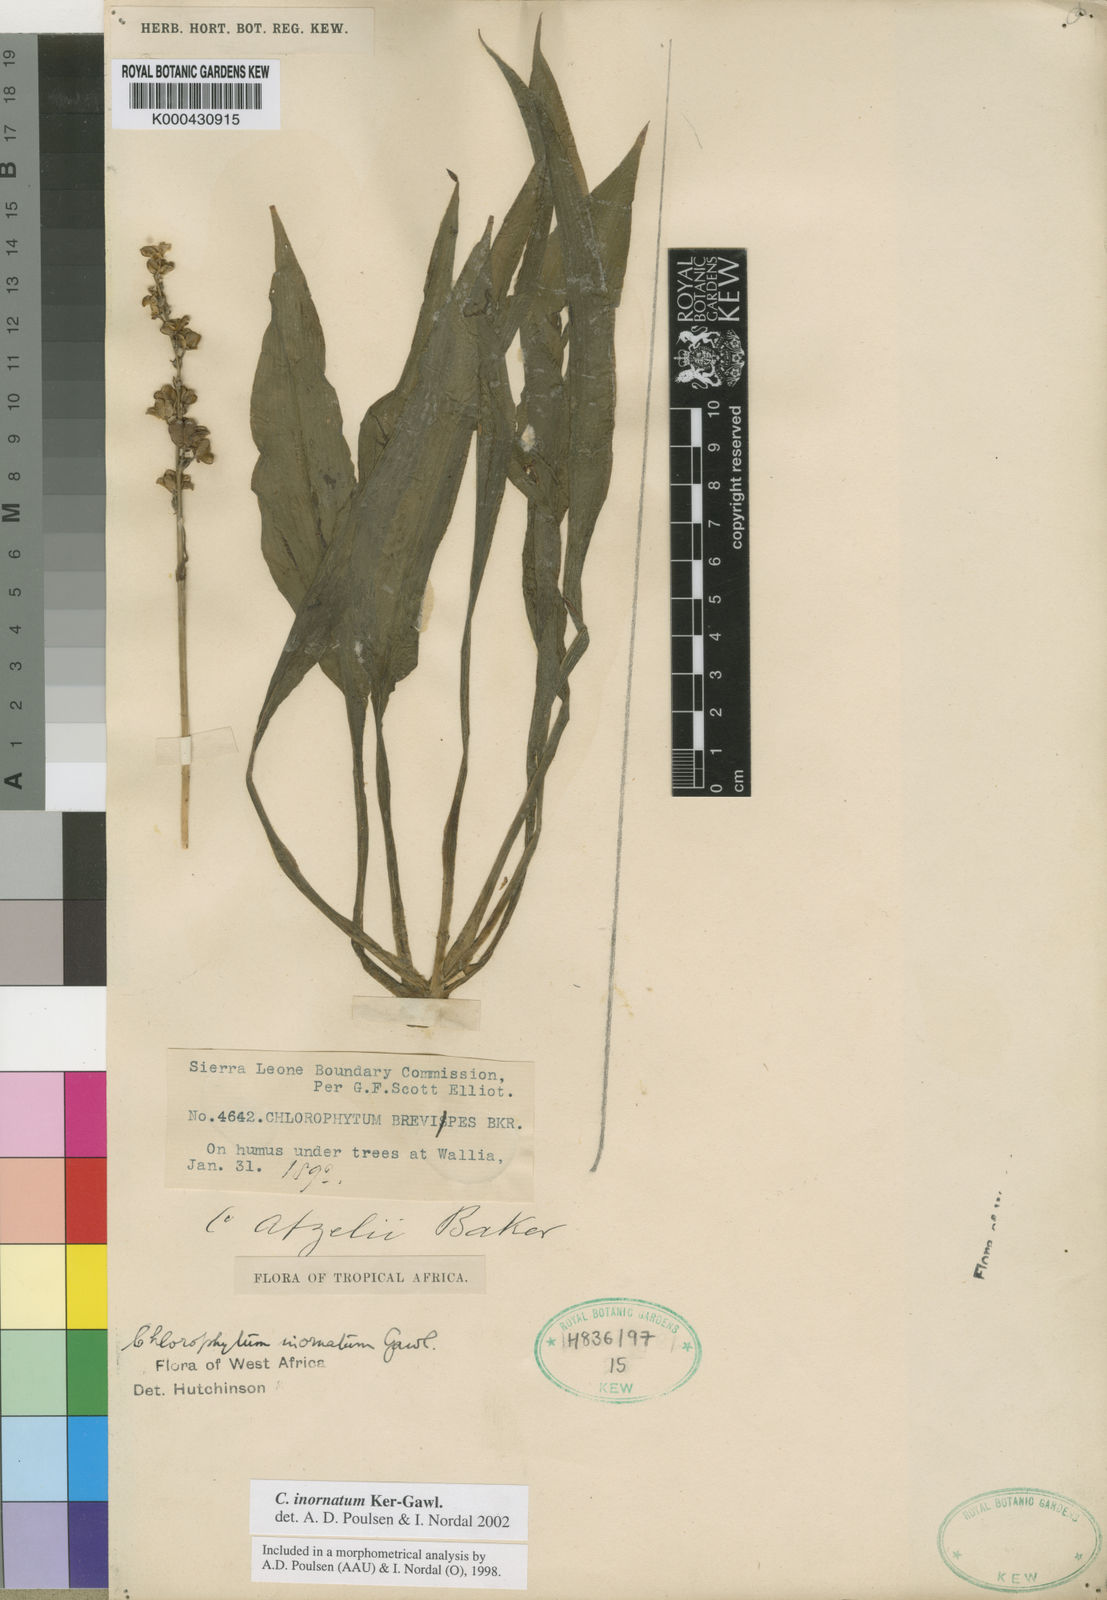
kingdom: Plantae
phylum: Tracheophyta
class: Liliopsida
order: Asparagales
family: Asparagaceae
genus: Chlorophytum
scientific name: Chlorophytum inornatum
